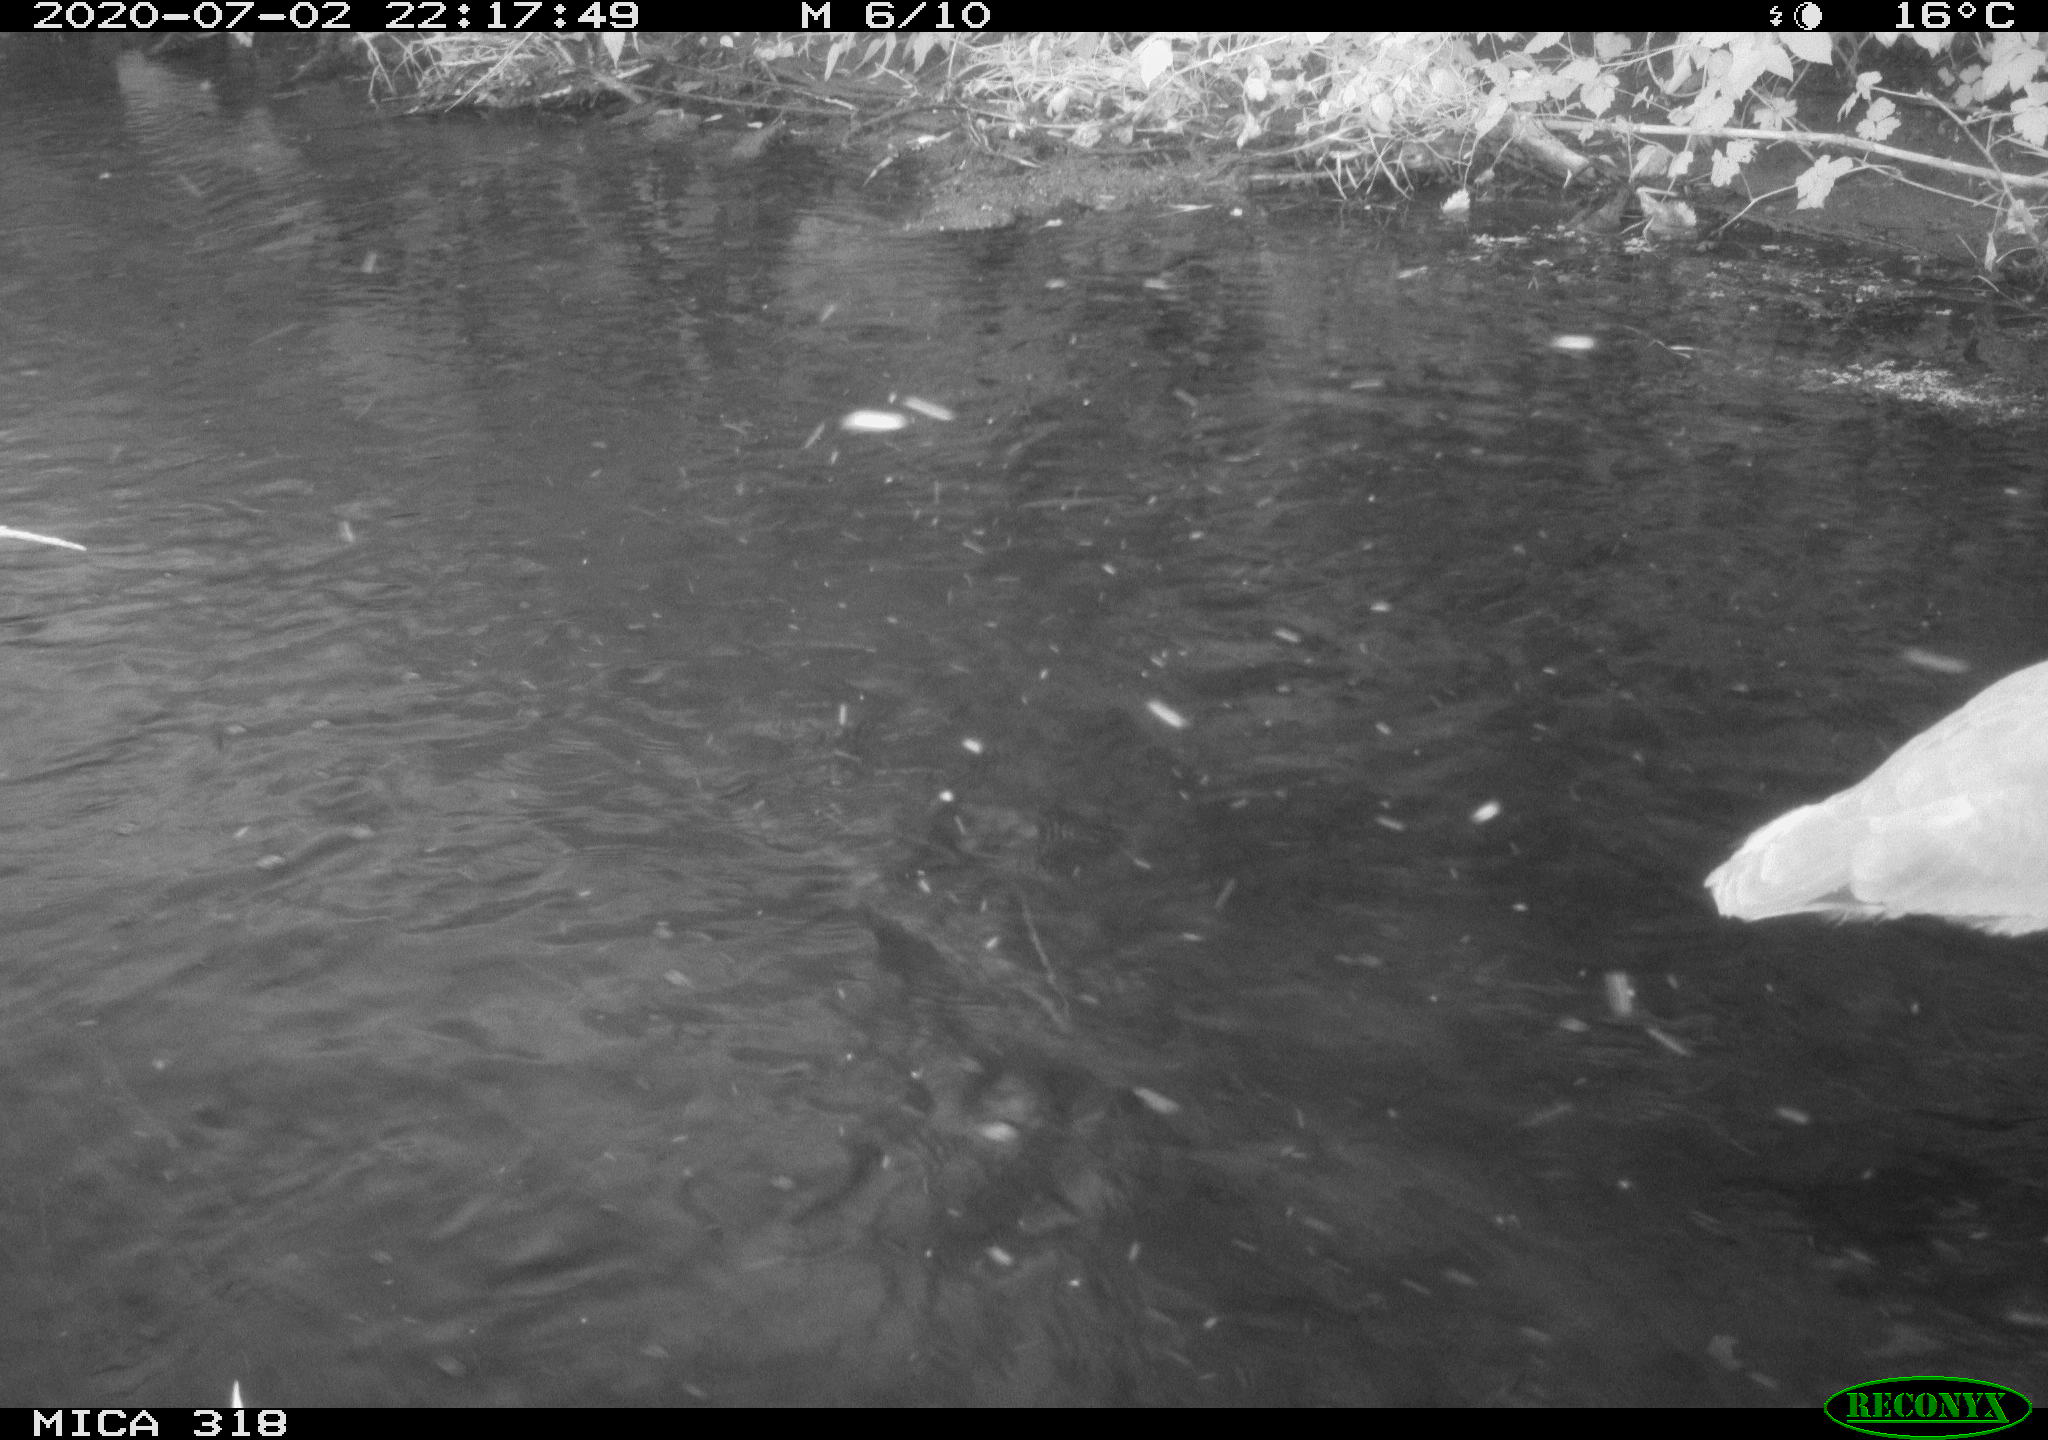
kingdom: Animalia
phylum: Chordata
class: Aves
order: Pelecaniformes
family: Ardeidae
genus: Ardea
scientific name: Ardea cinerea
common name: Grey heron
